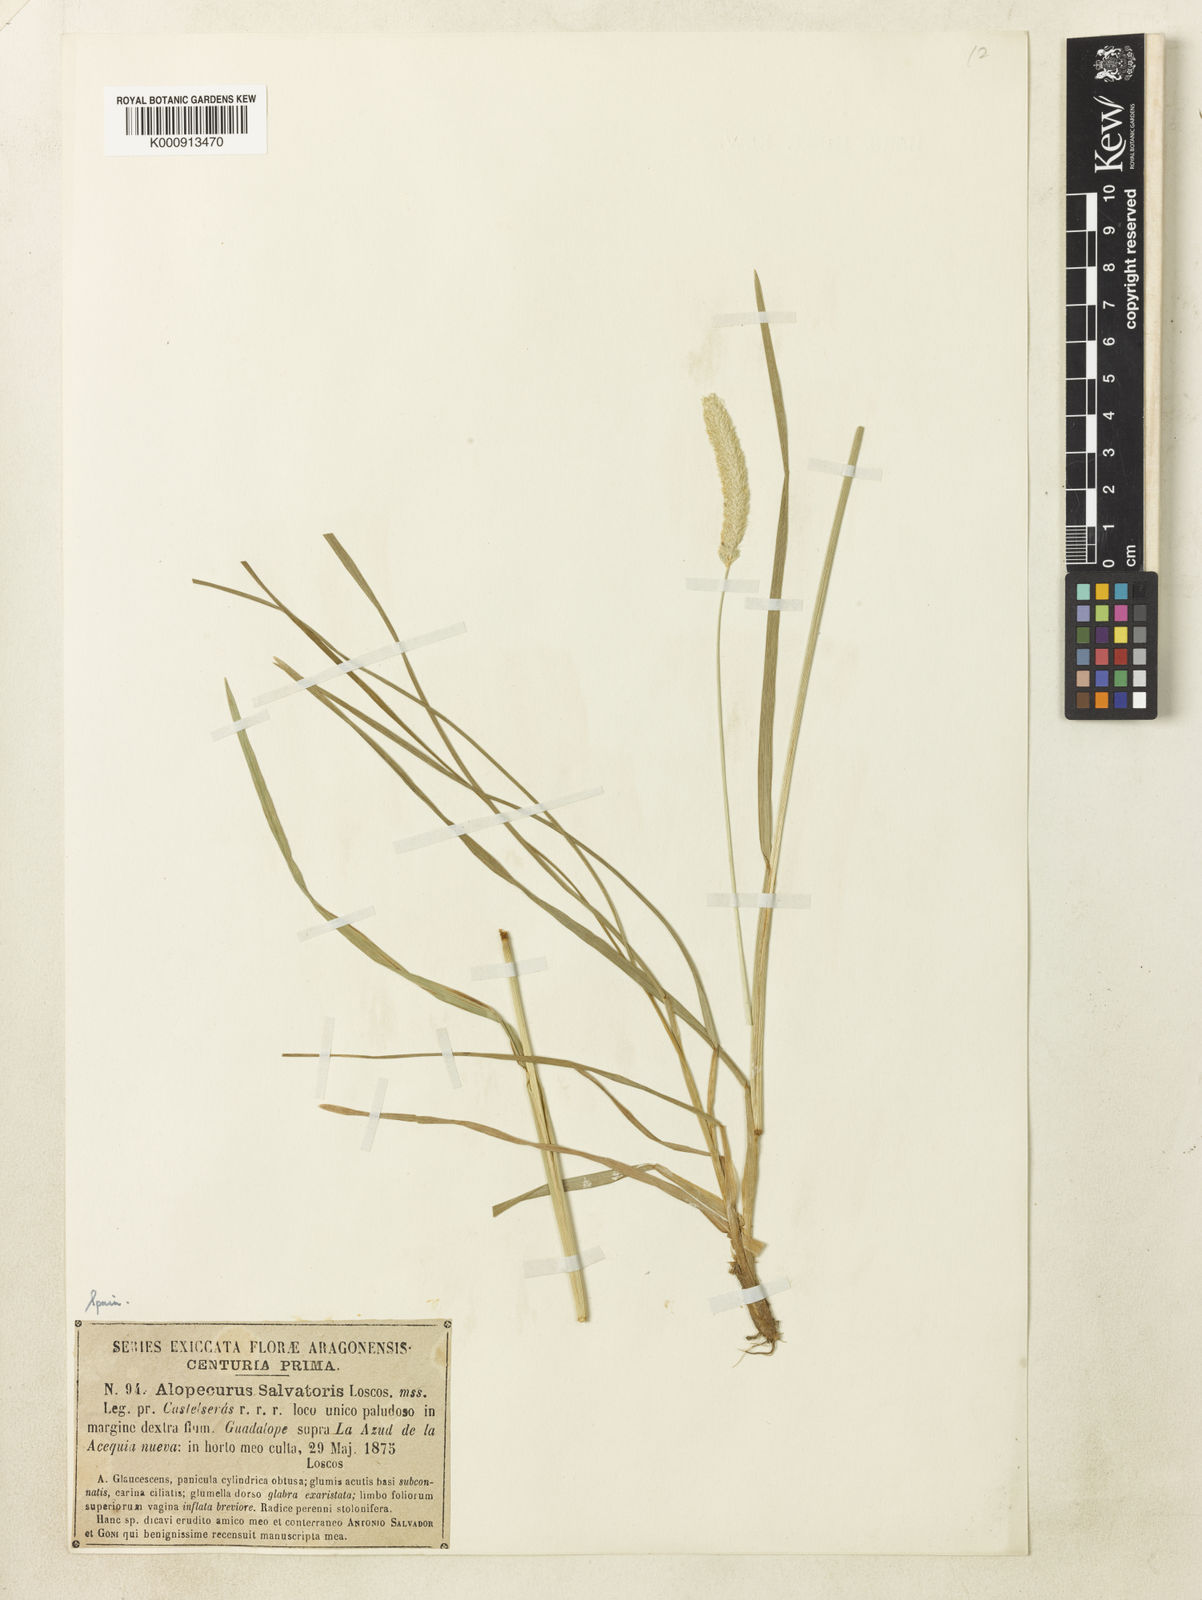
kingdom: Plantae
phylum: Tracheophyta
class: Liliopsida
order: Poales
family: Poaceae
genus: Alopecurus
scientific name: Alopecurus arundinaceus
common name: Creeping meadow foxtail
